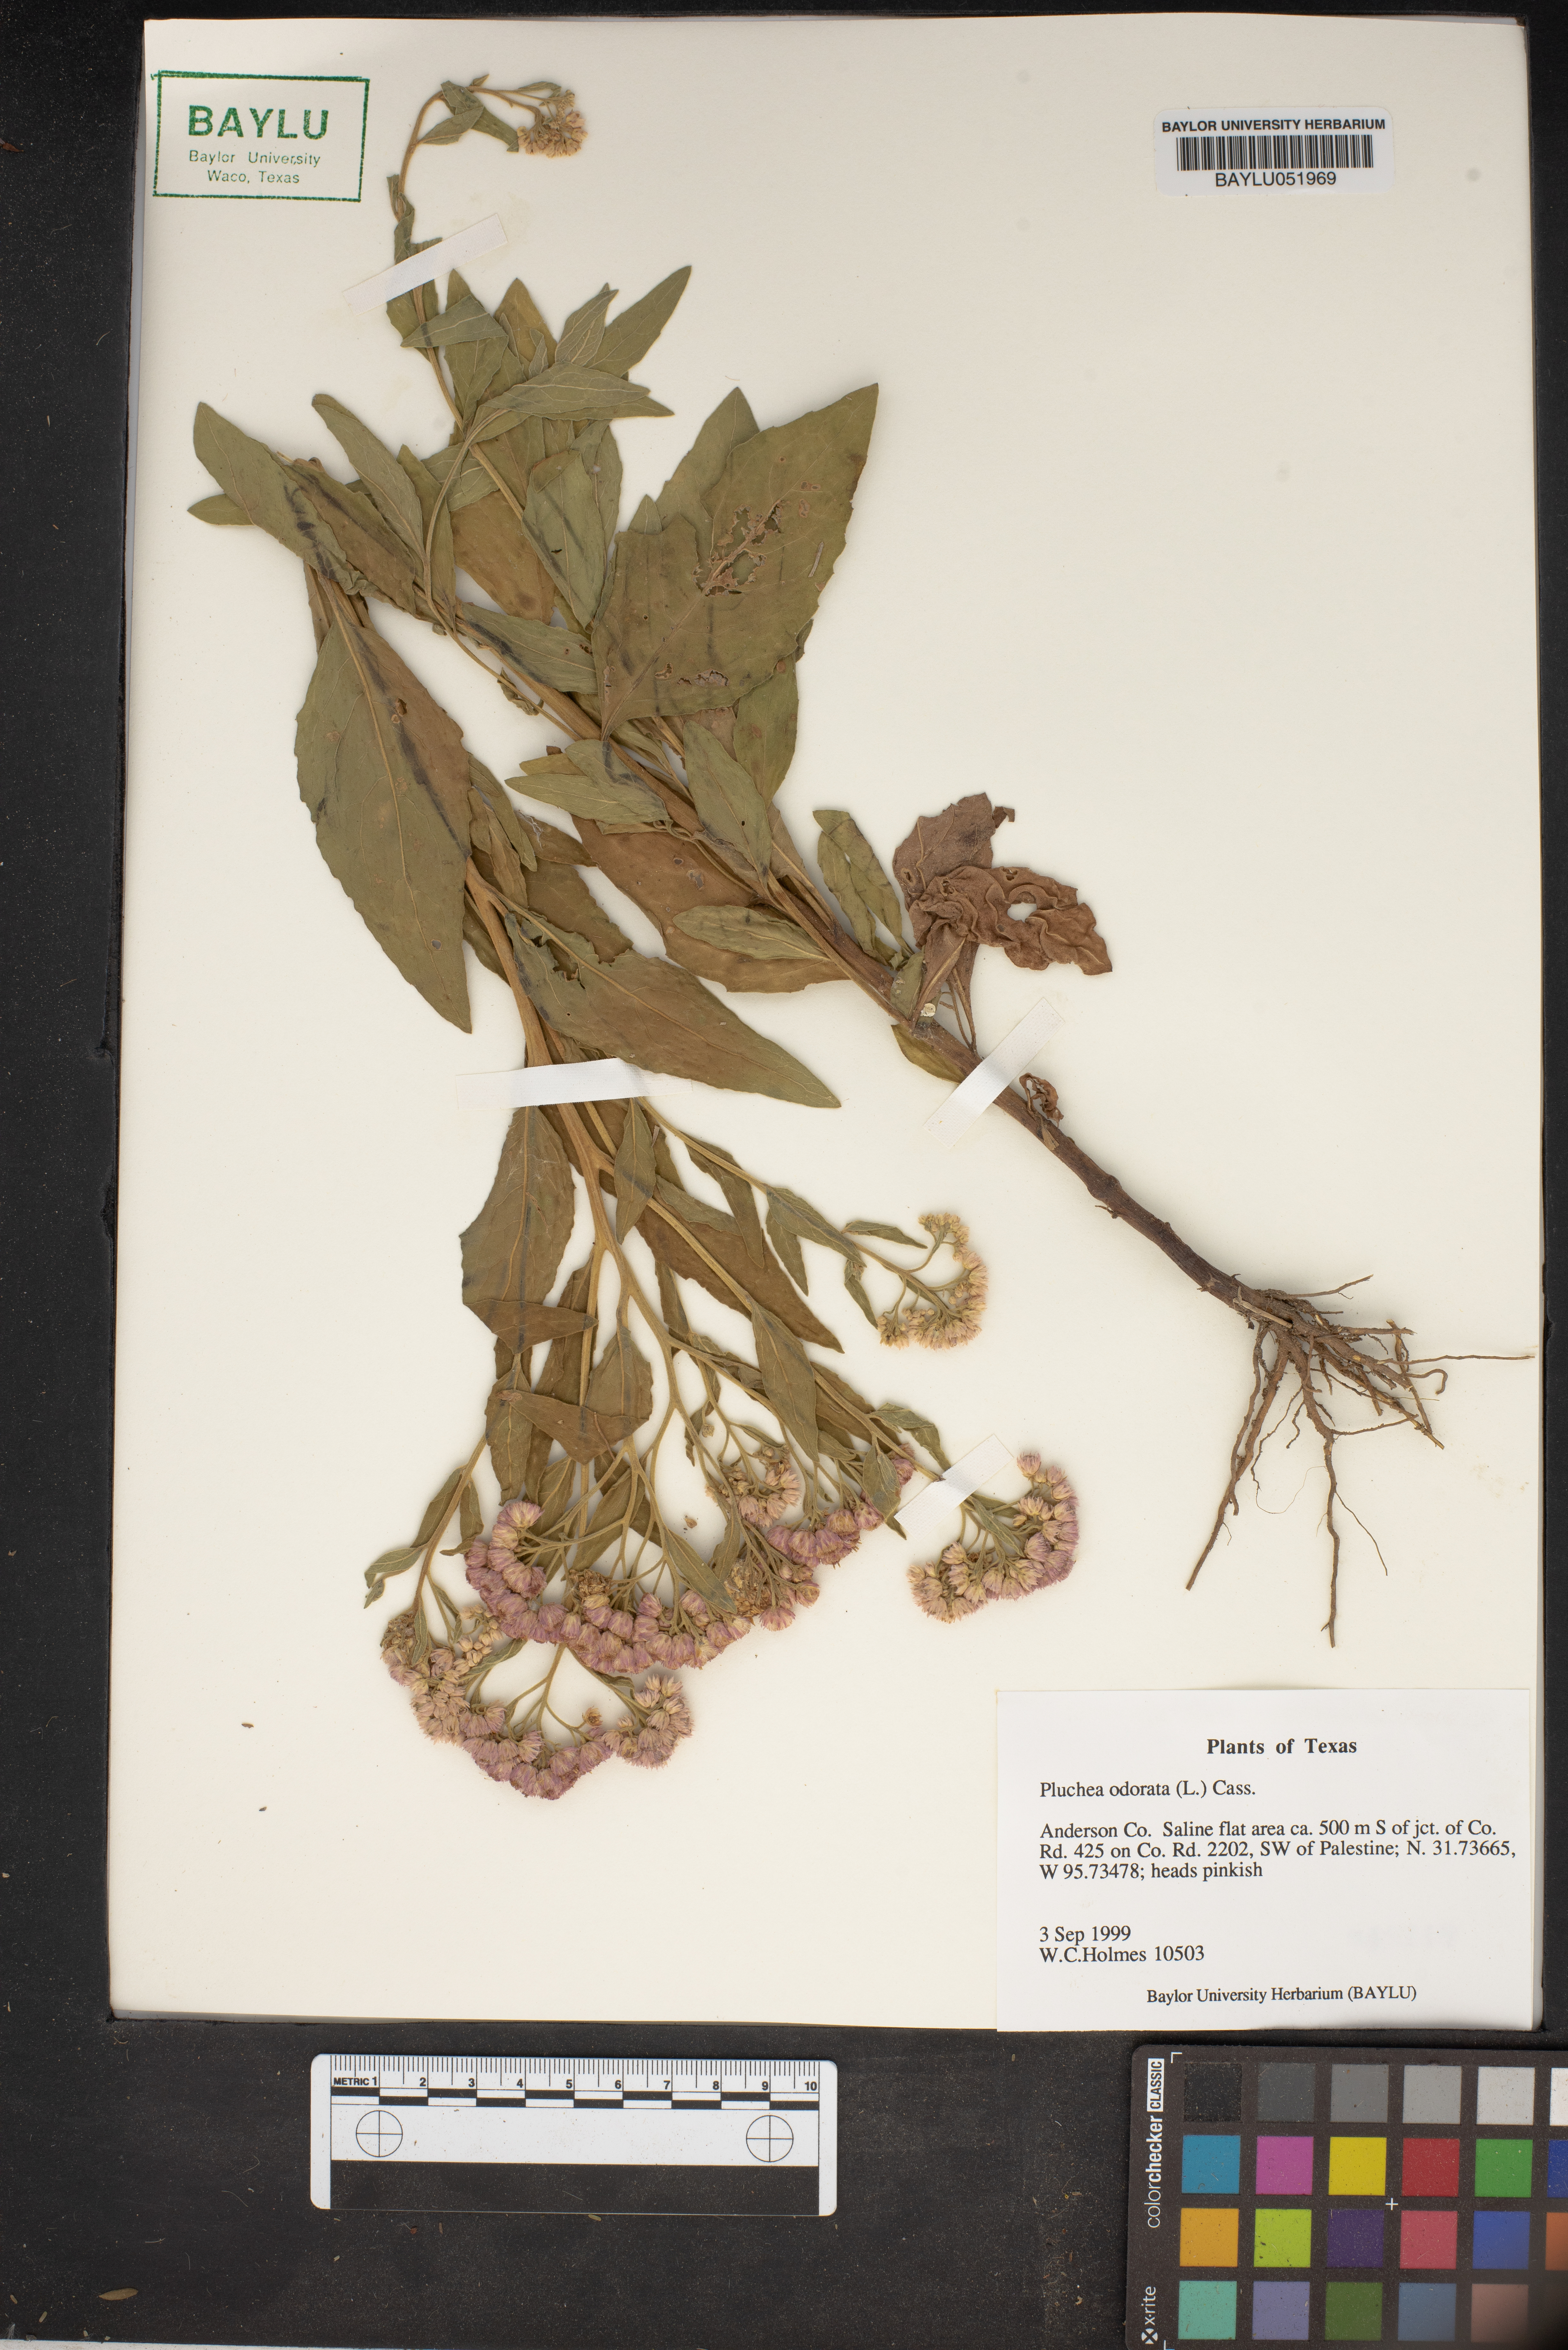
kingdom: Plantae
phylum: Tracheophyta
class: Magnoliopsida
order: Asterales
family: Asteraceae
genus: Pluchea
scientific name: Pluchea odorata
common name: Saltmarsh fleabane
